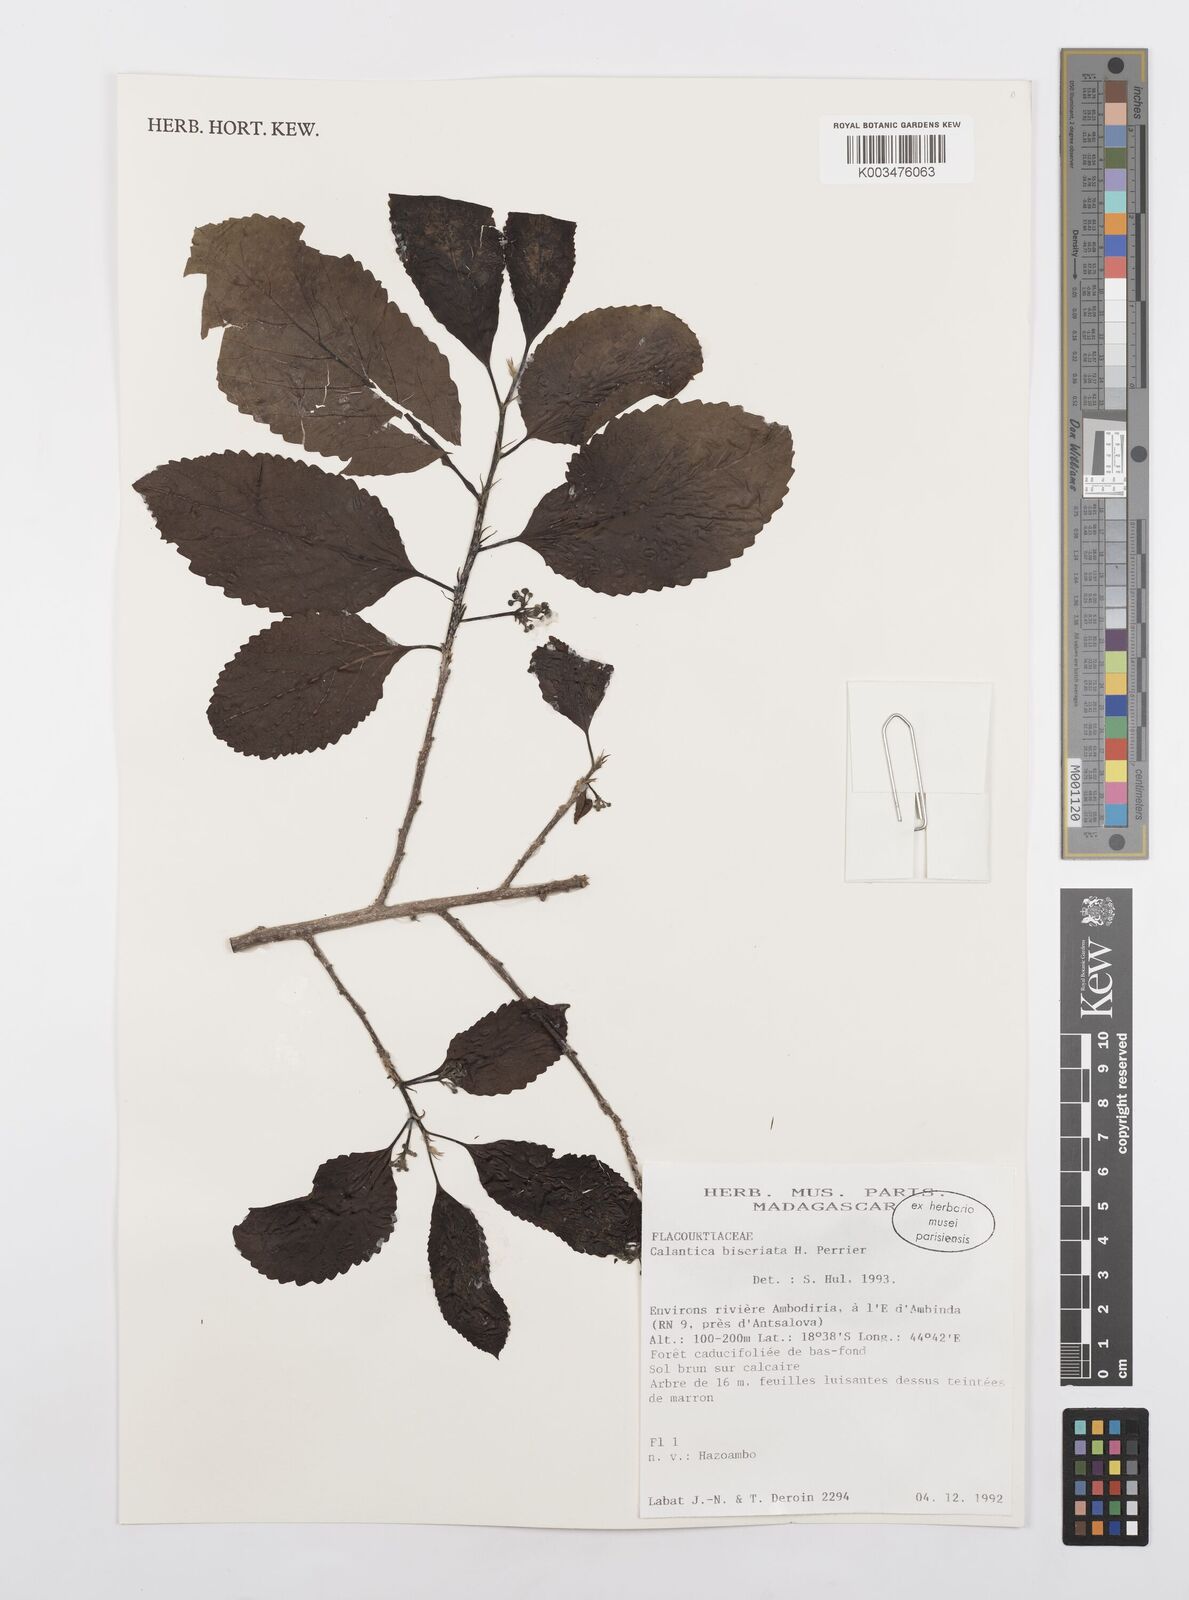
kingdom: Plantae
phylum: Tracheophyta
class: Magnoliopsida
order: Malpighiales
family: Salicaceae
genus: Calantica
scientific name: Calantica biseriata
